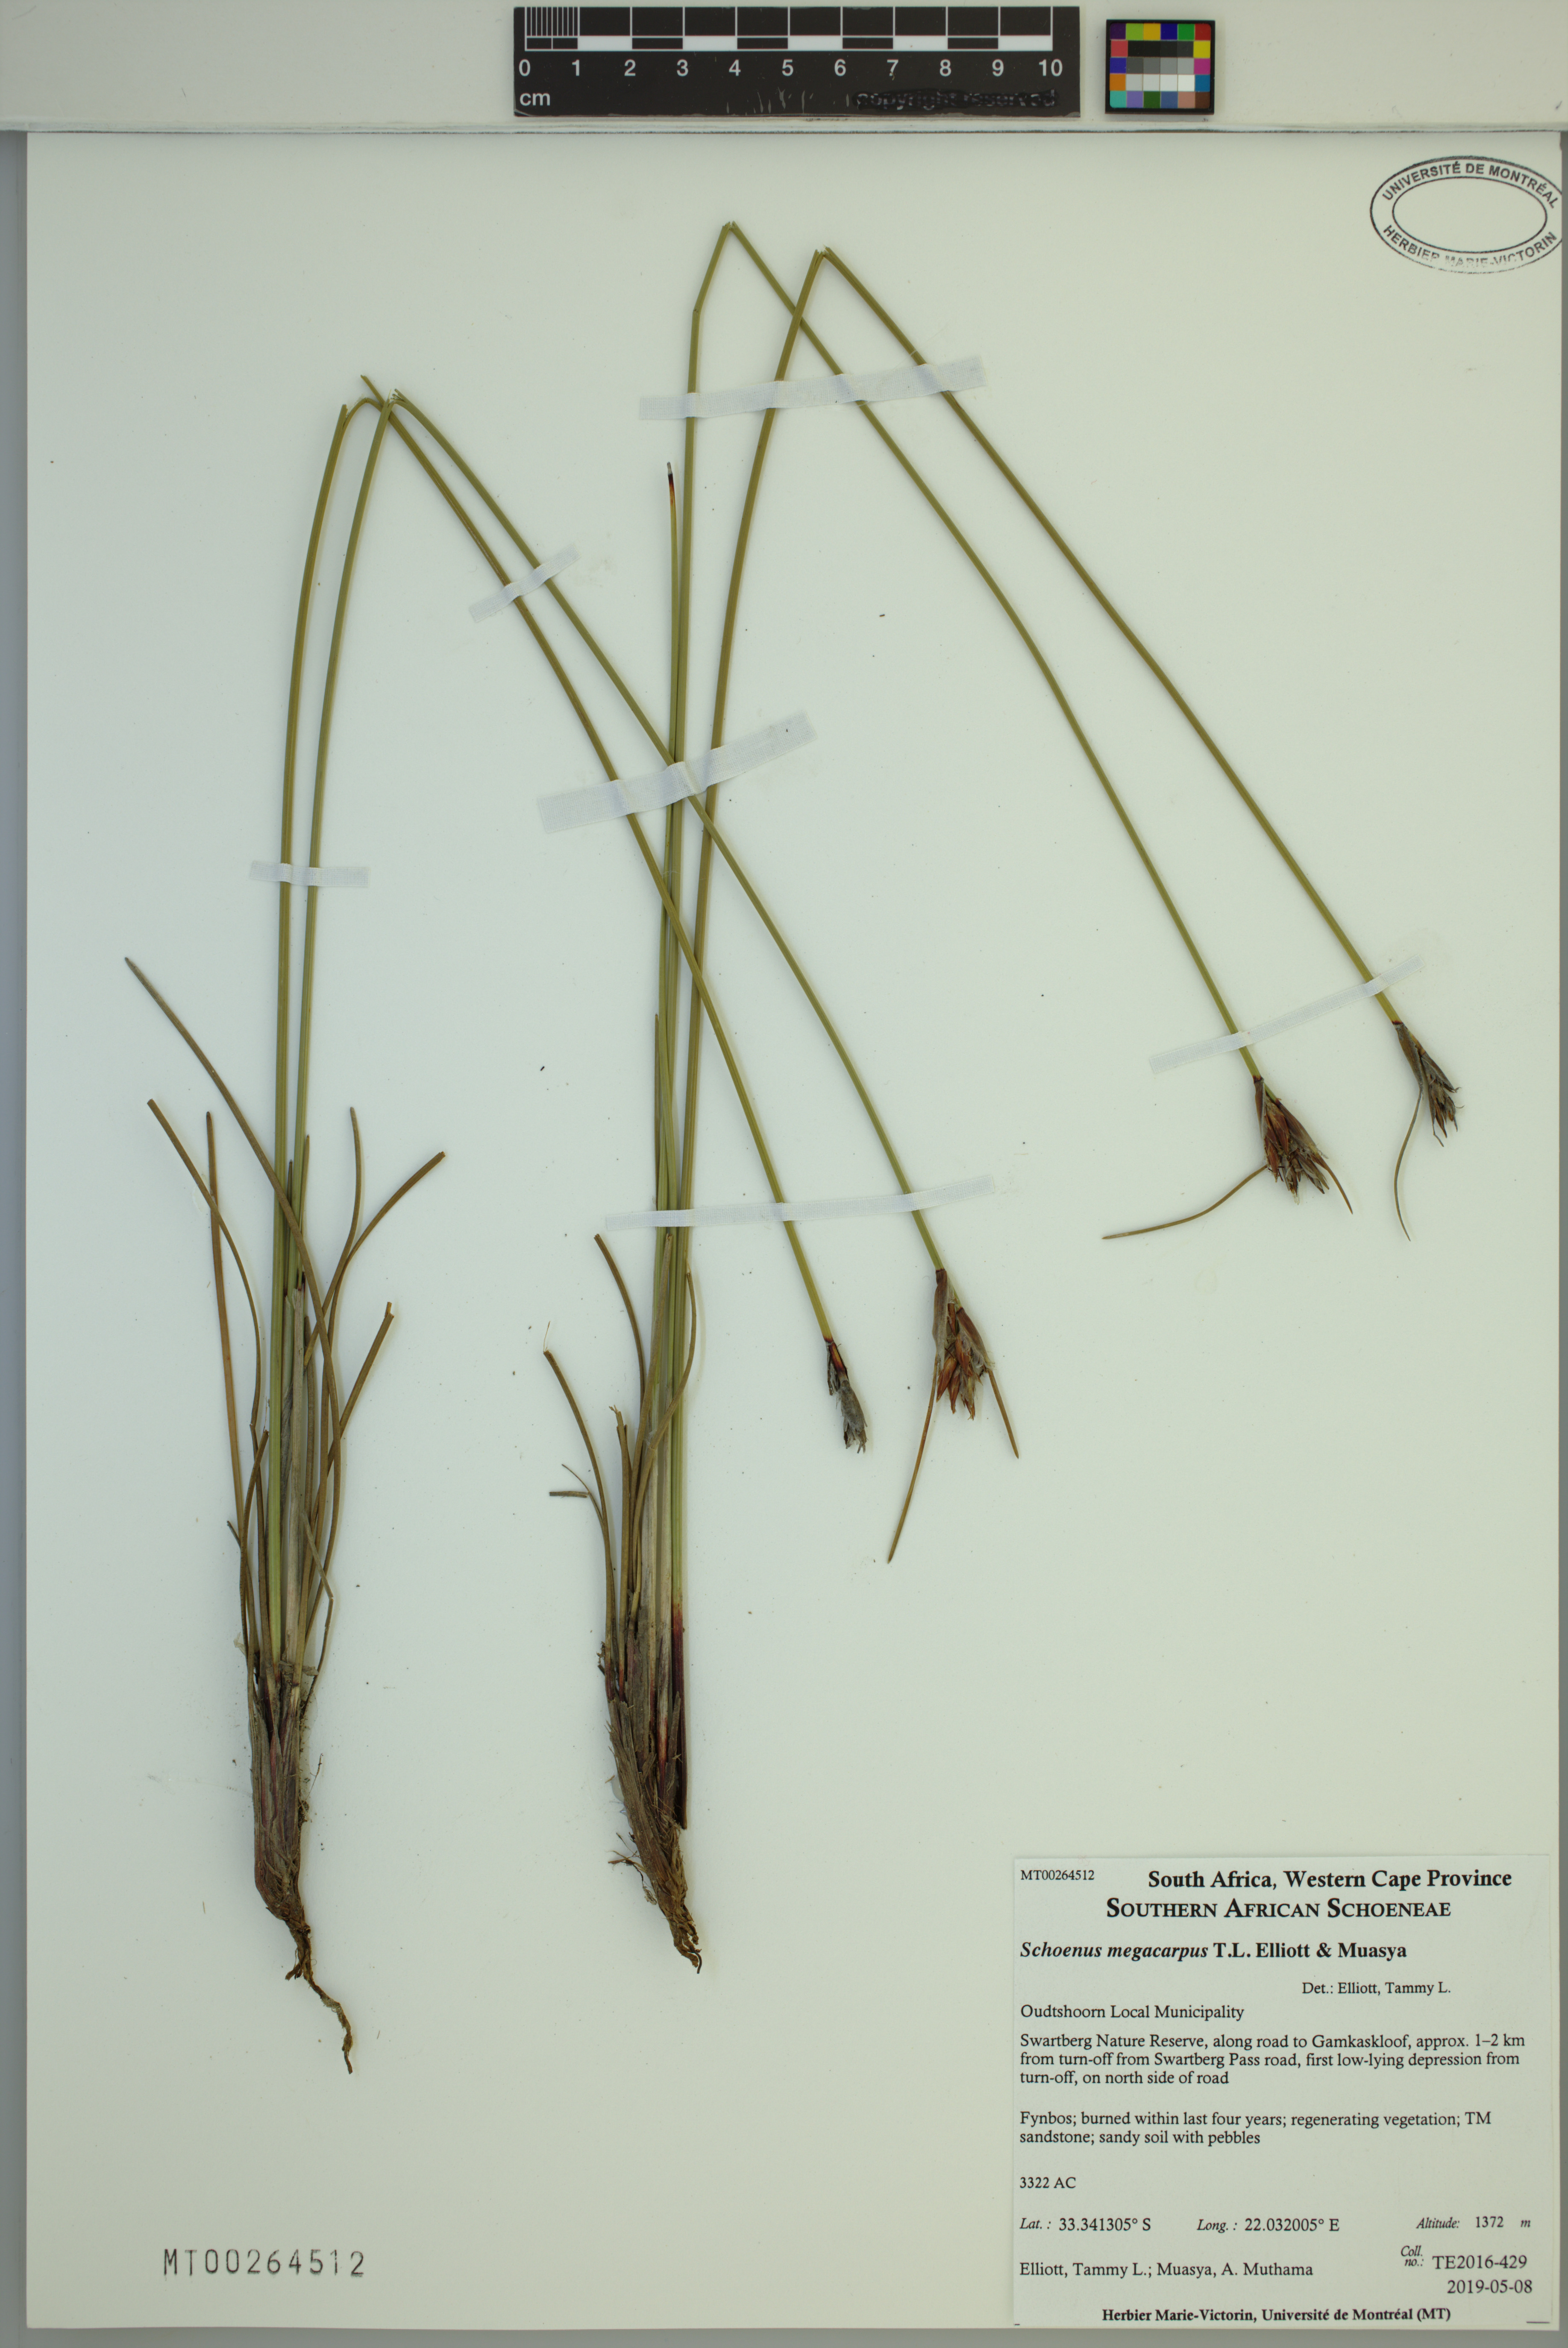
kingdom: Plantae
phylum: Tracheophyta
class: Liliopsida
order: Poales
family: Cyperaceae
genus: Schoenus
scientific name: Schoenus megacarpus
